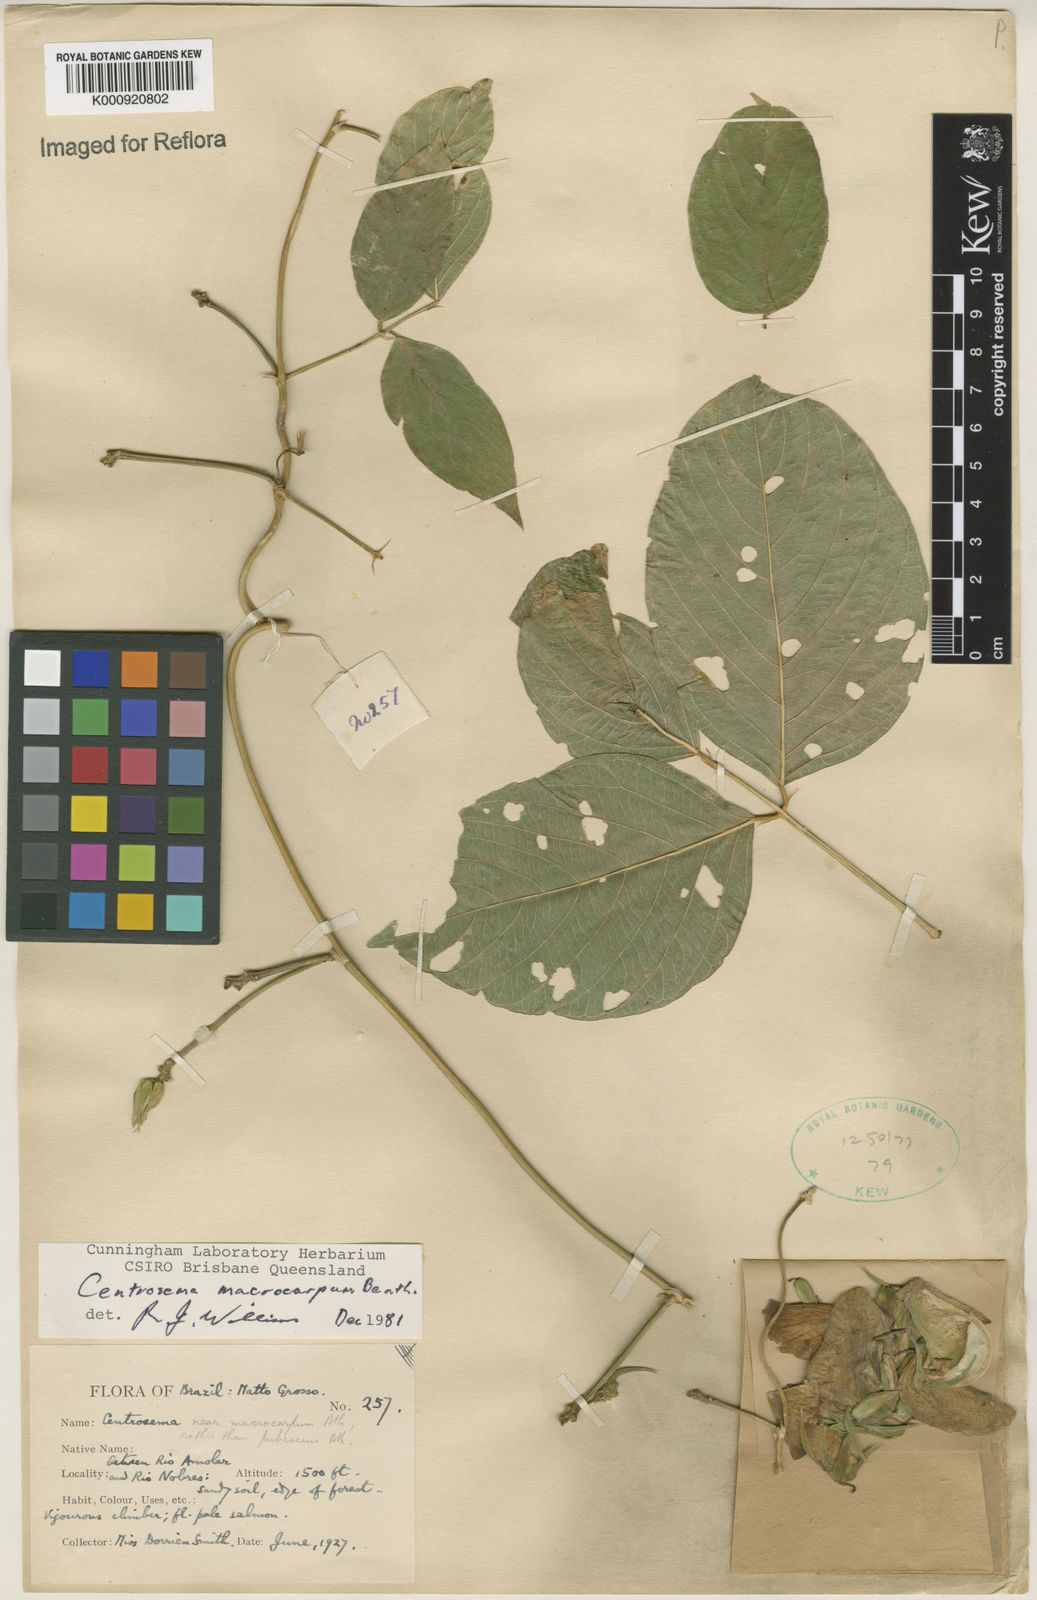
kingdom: Plantae
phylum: Tracheophyta
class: Magnoliopsida
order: Fabales
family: Fabaceae
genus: Centrosema
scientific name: Centrosema macrocarpum
